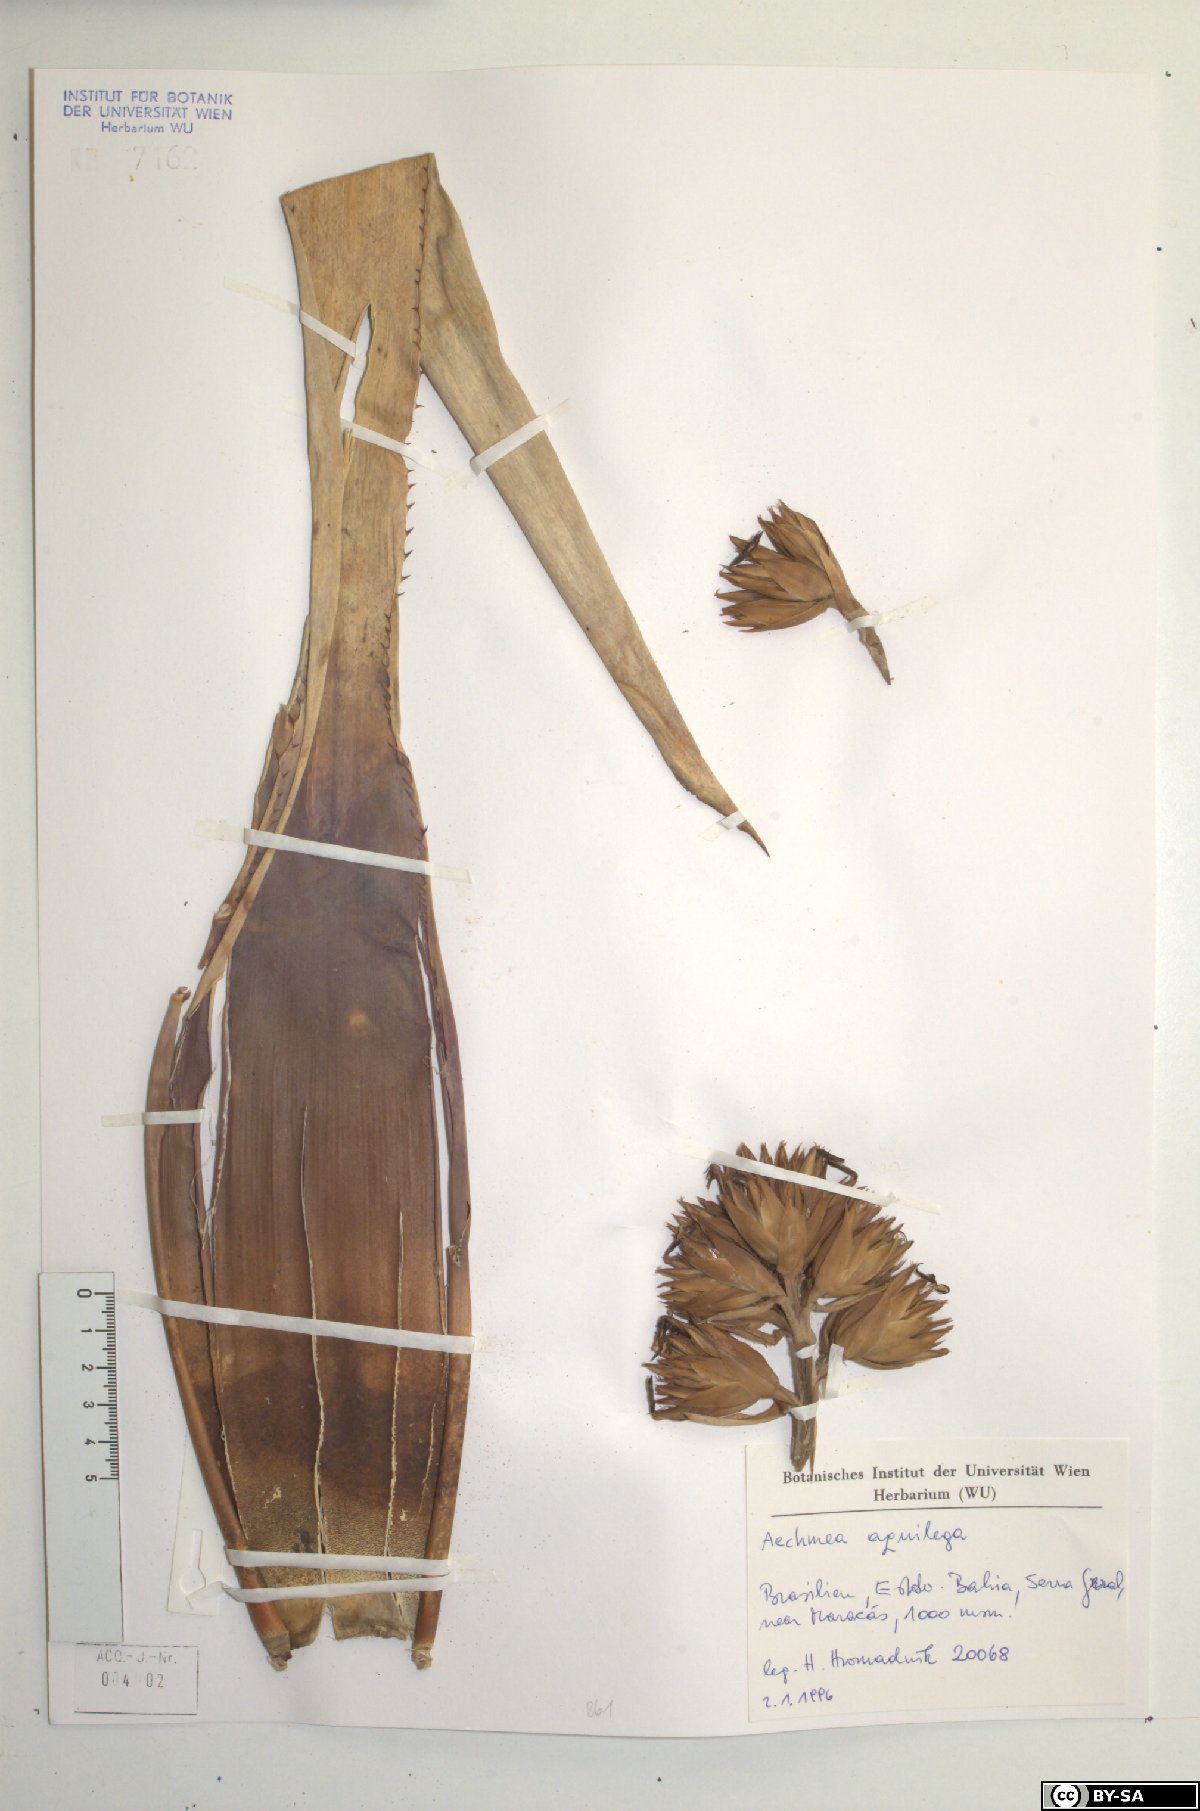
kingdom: Plantae
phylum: Tracheophyta
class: Liliopsida
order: Poales
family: Bromeliaceae
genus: Aechmea
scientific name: Aechmea aquilega
